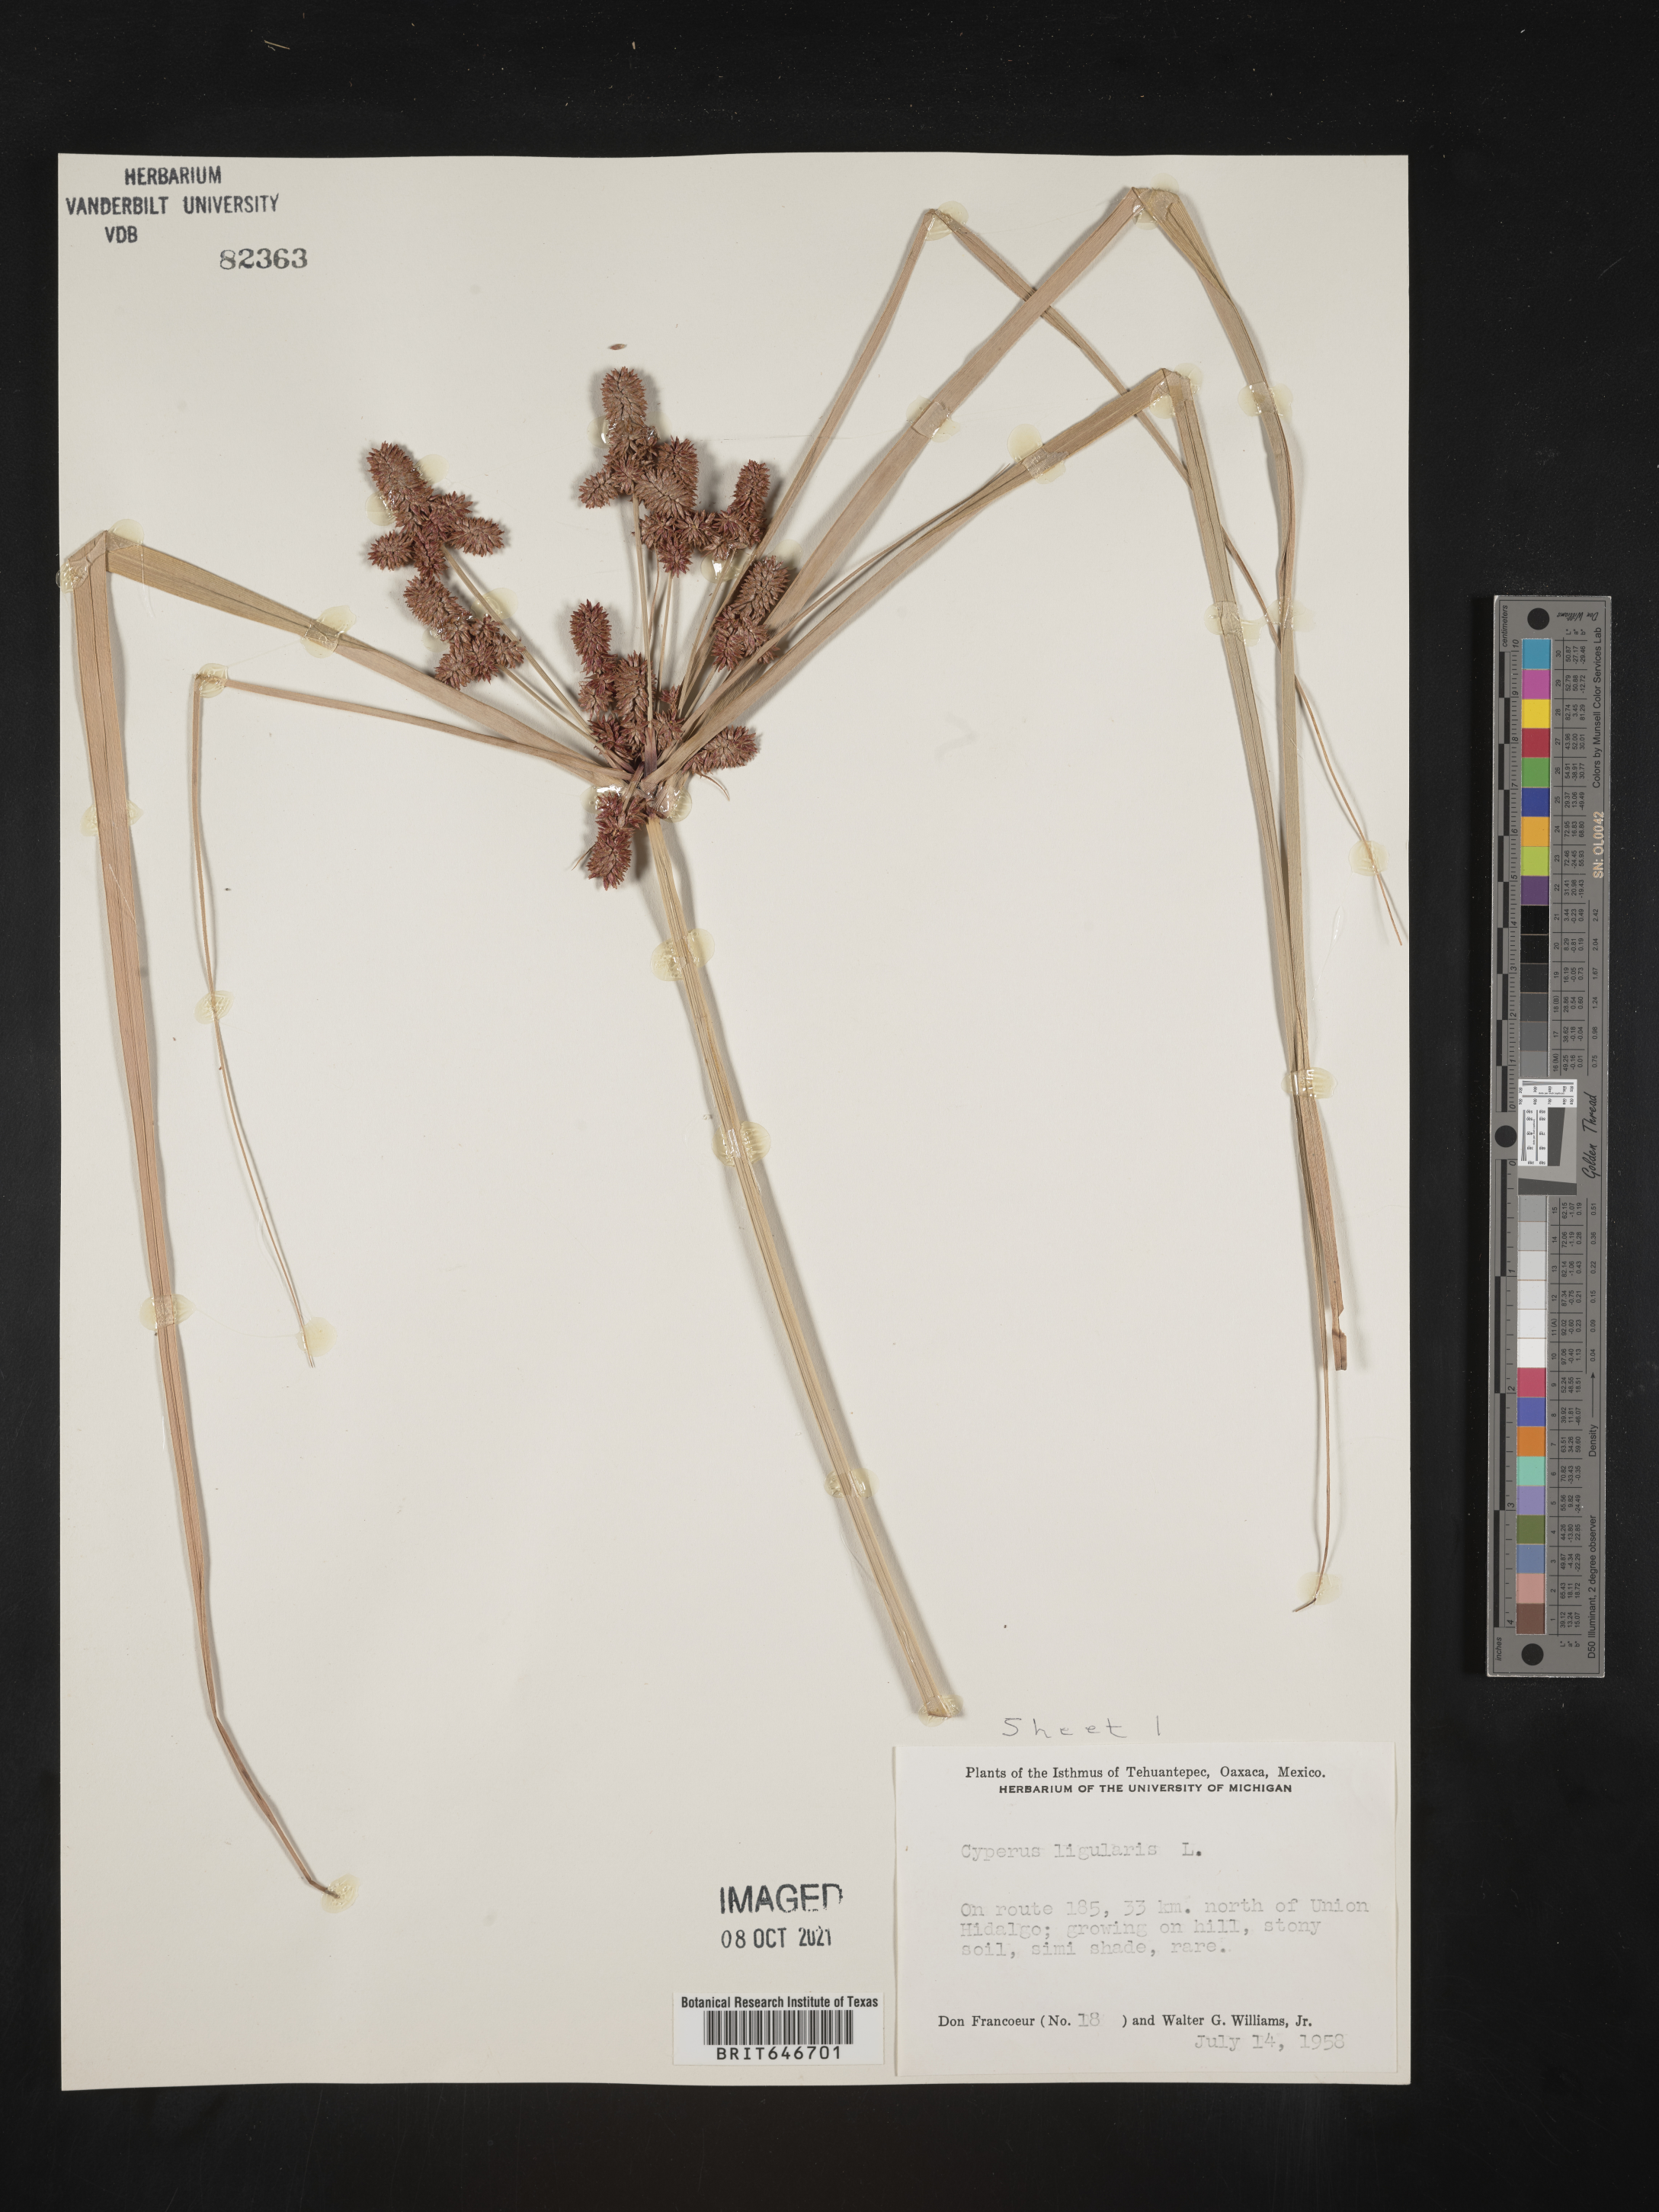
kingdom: Plantae
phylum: Tracheophyta
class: Liliopsida
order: Poales
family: Cyperaceae
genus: Cyperus
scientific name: Cyperus
